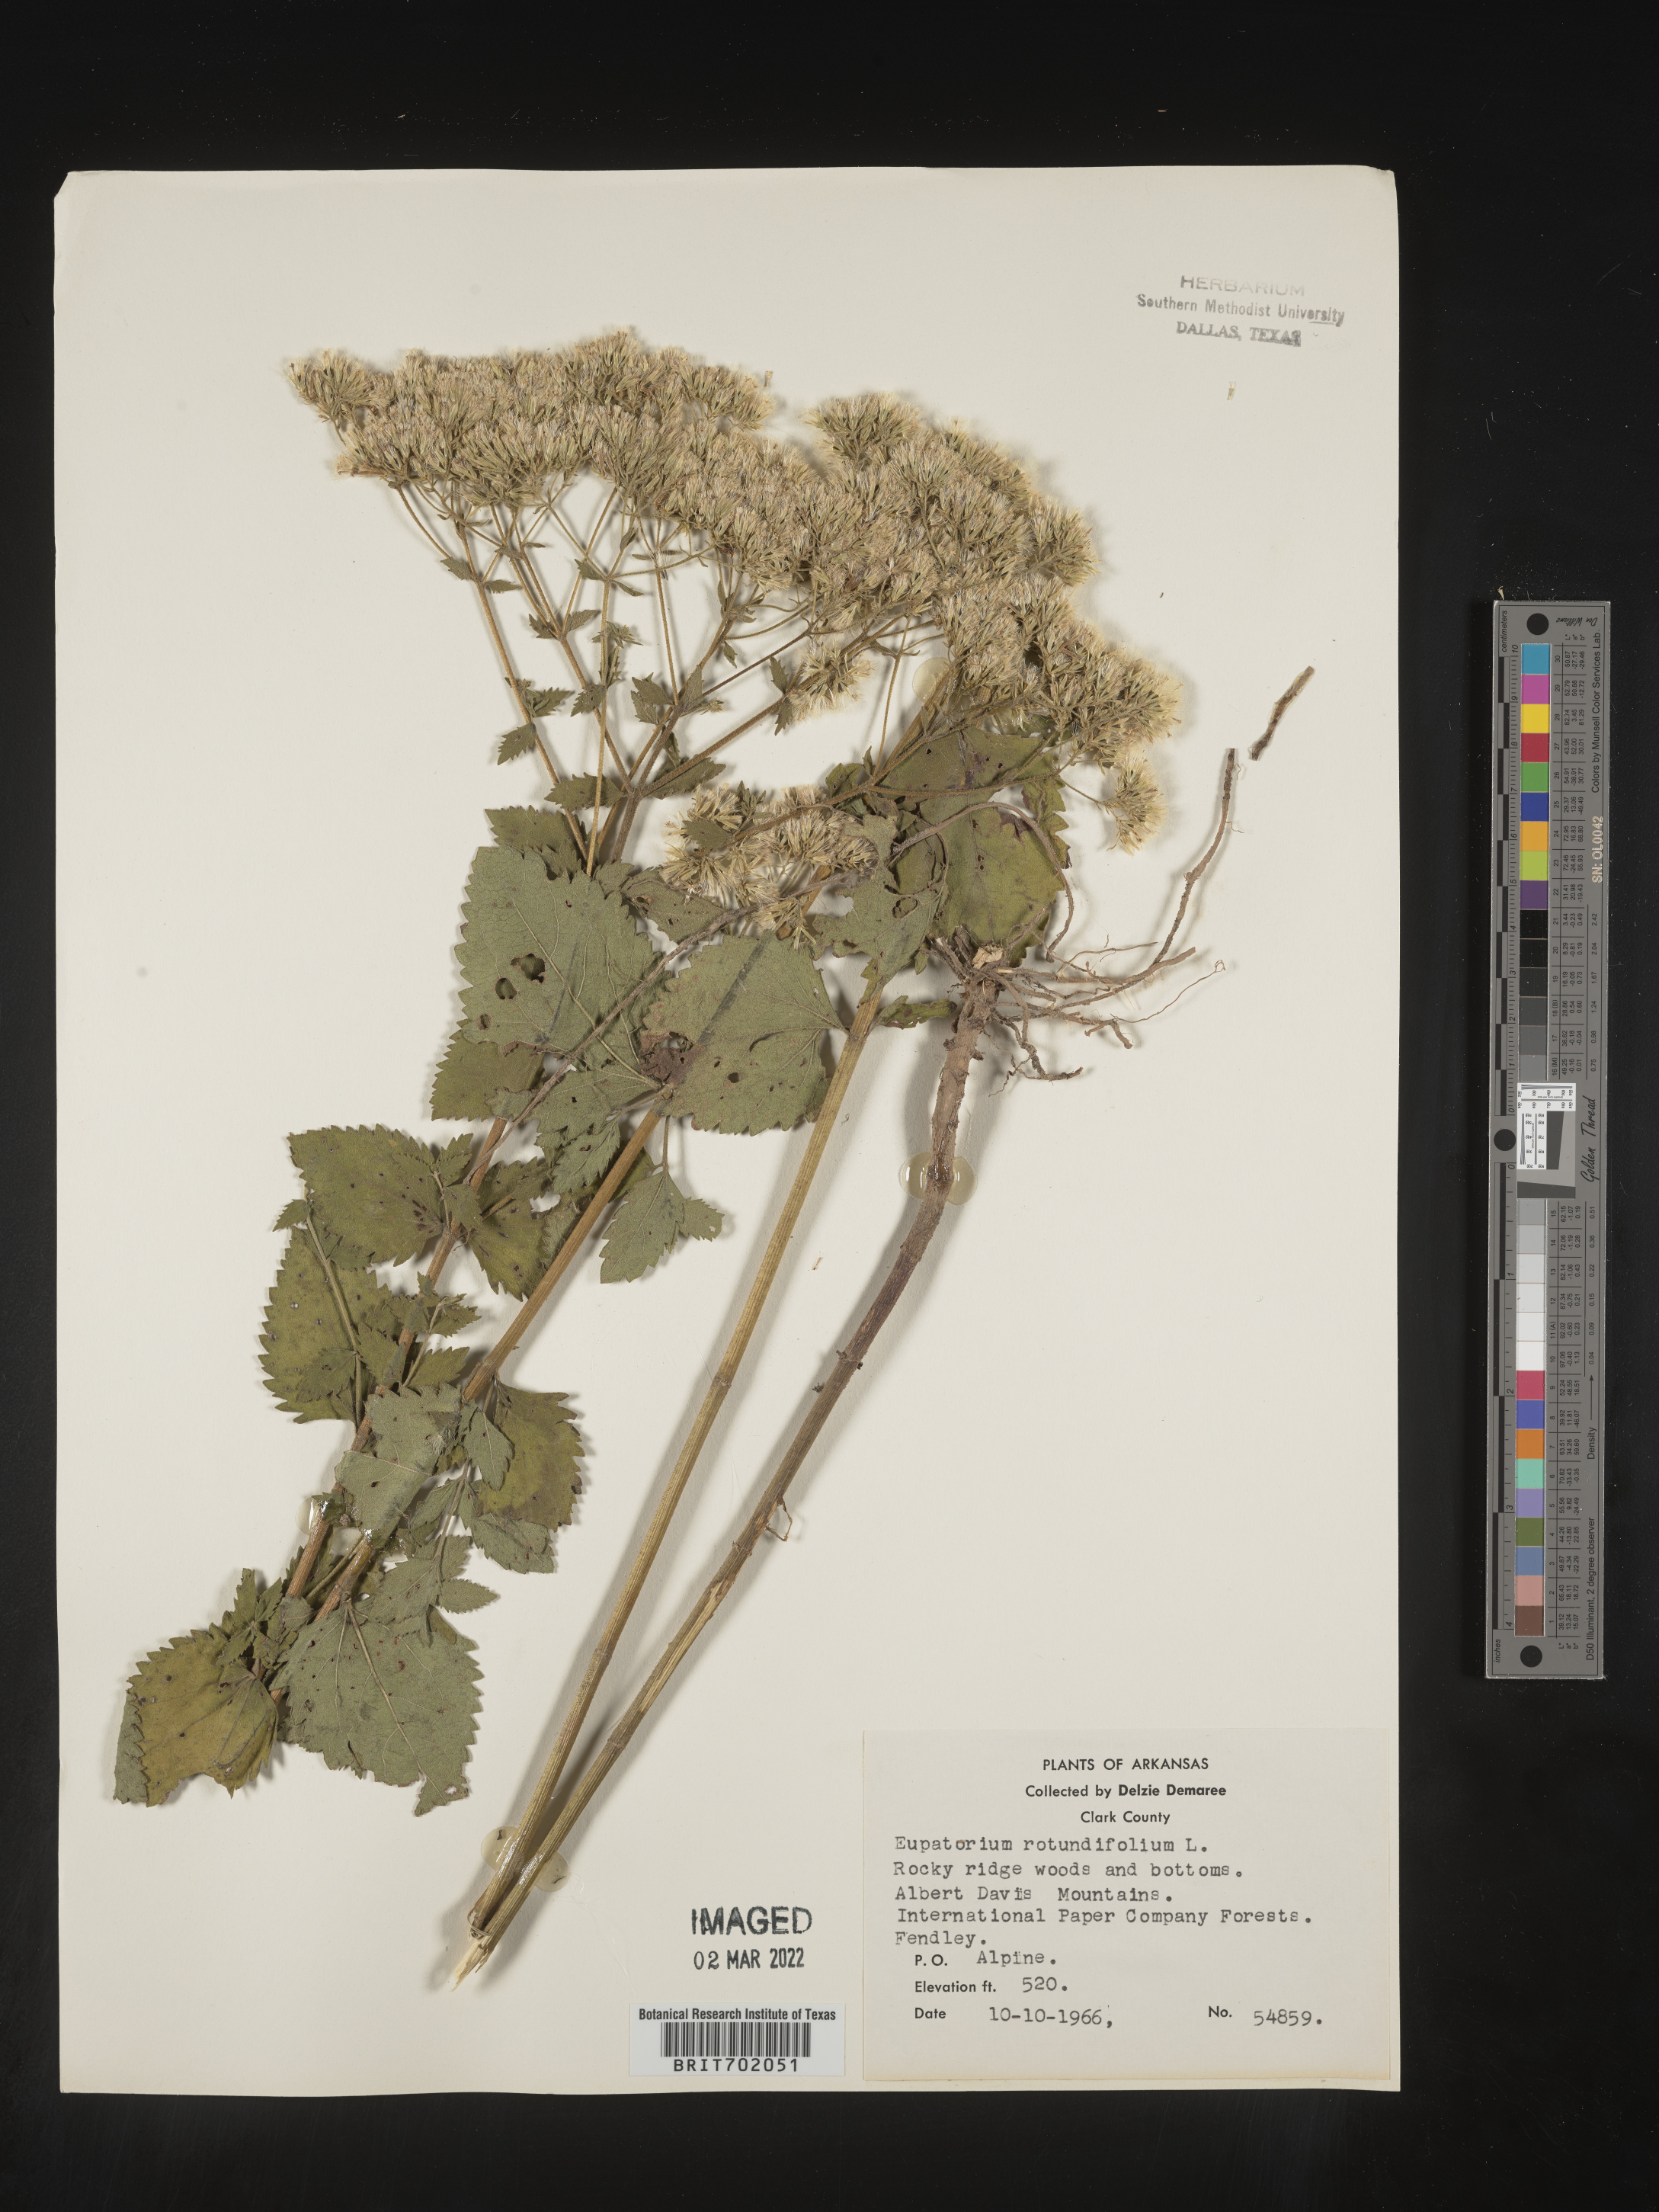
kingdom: Plantae
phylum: Tracheophyta
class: Magnoliopsida
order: Asterales
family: Asteraceae
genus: Eupatorium
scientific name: Eupatorium rotundifolium
